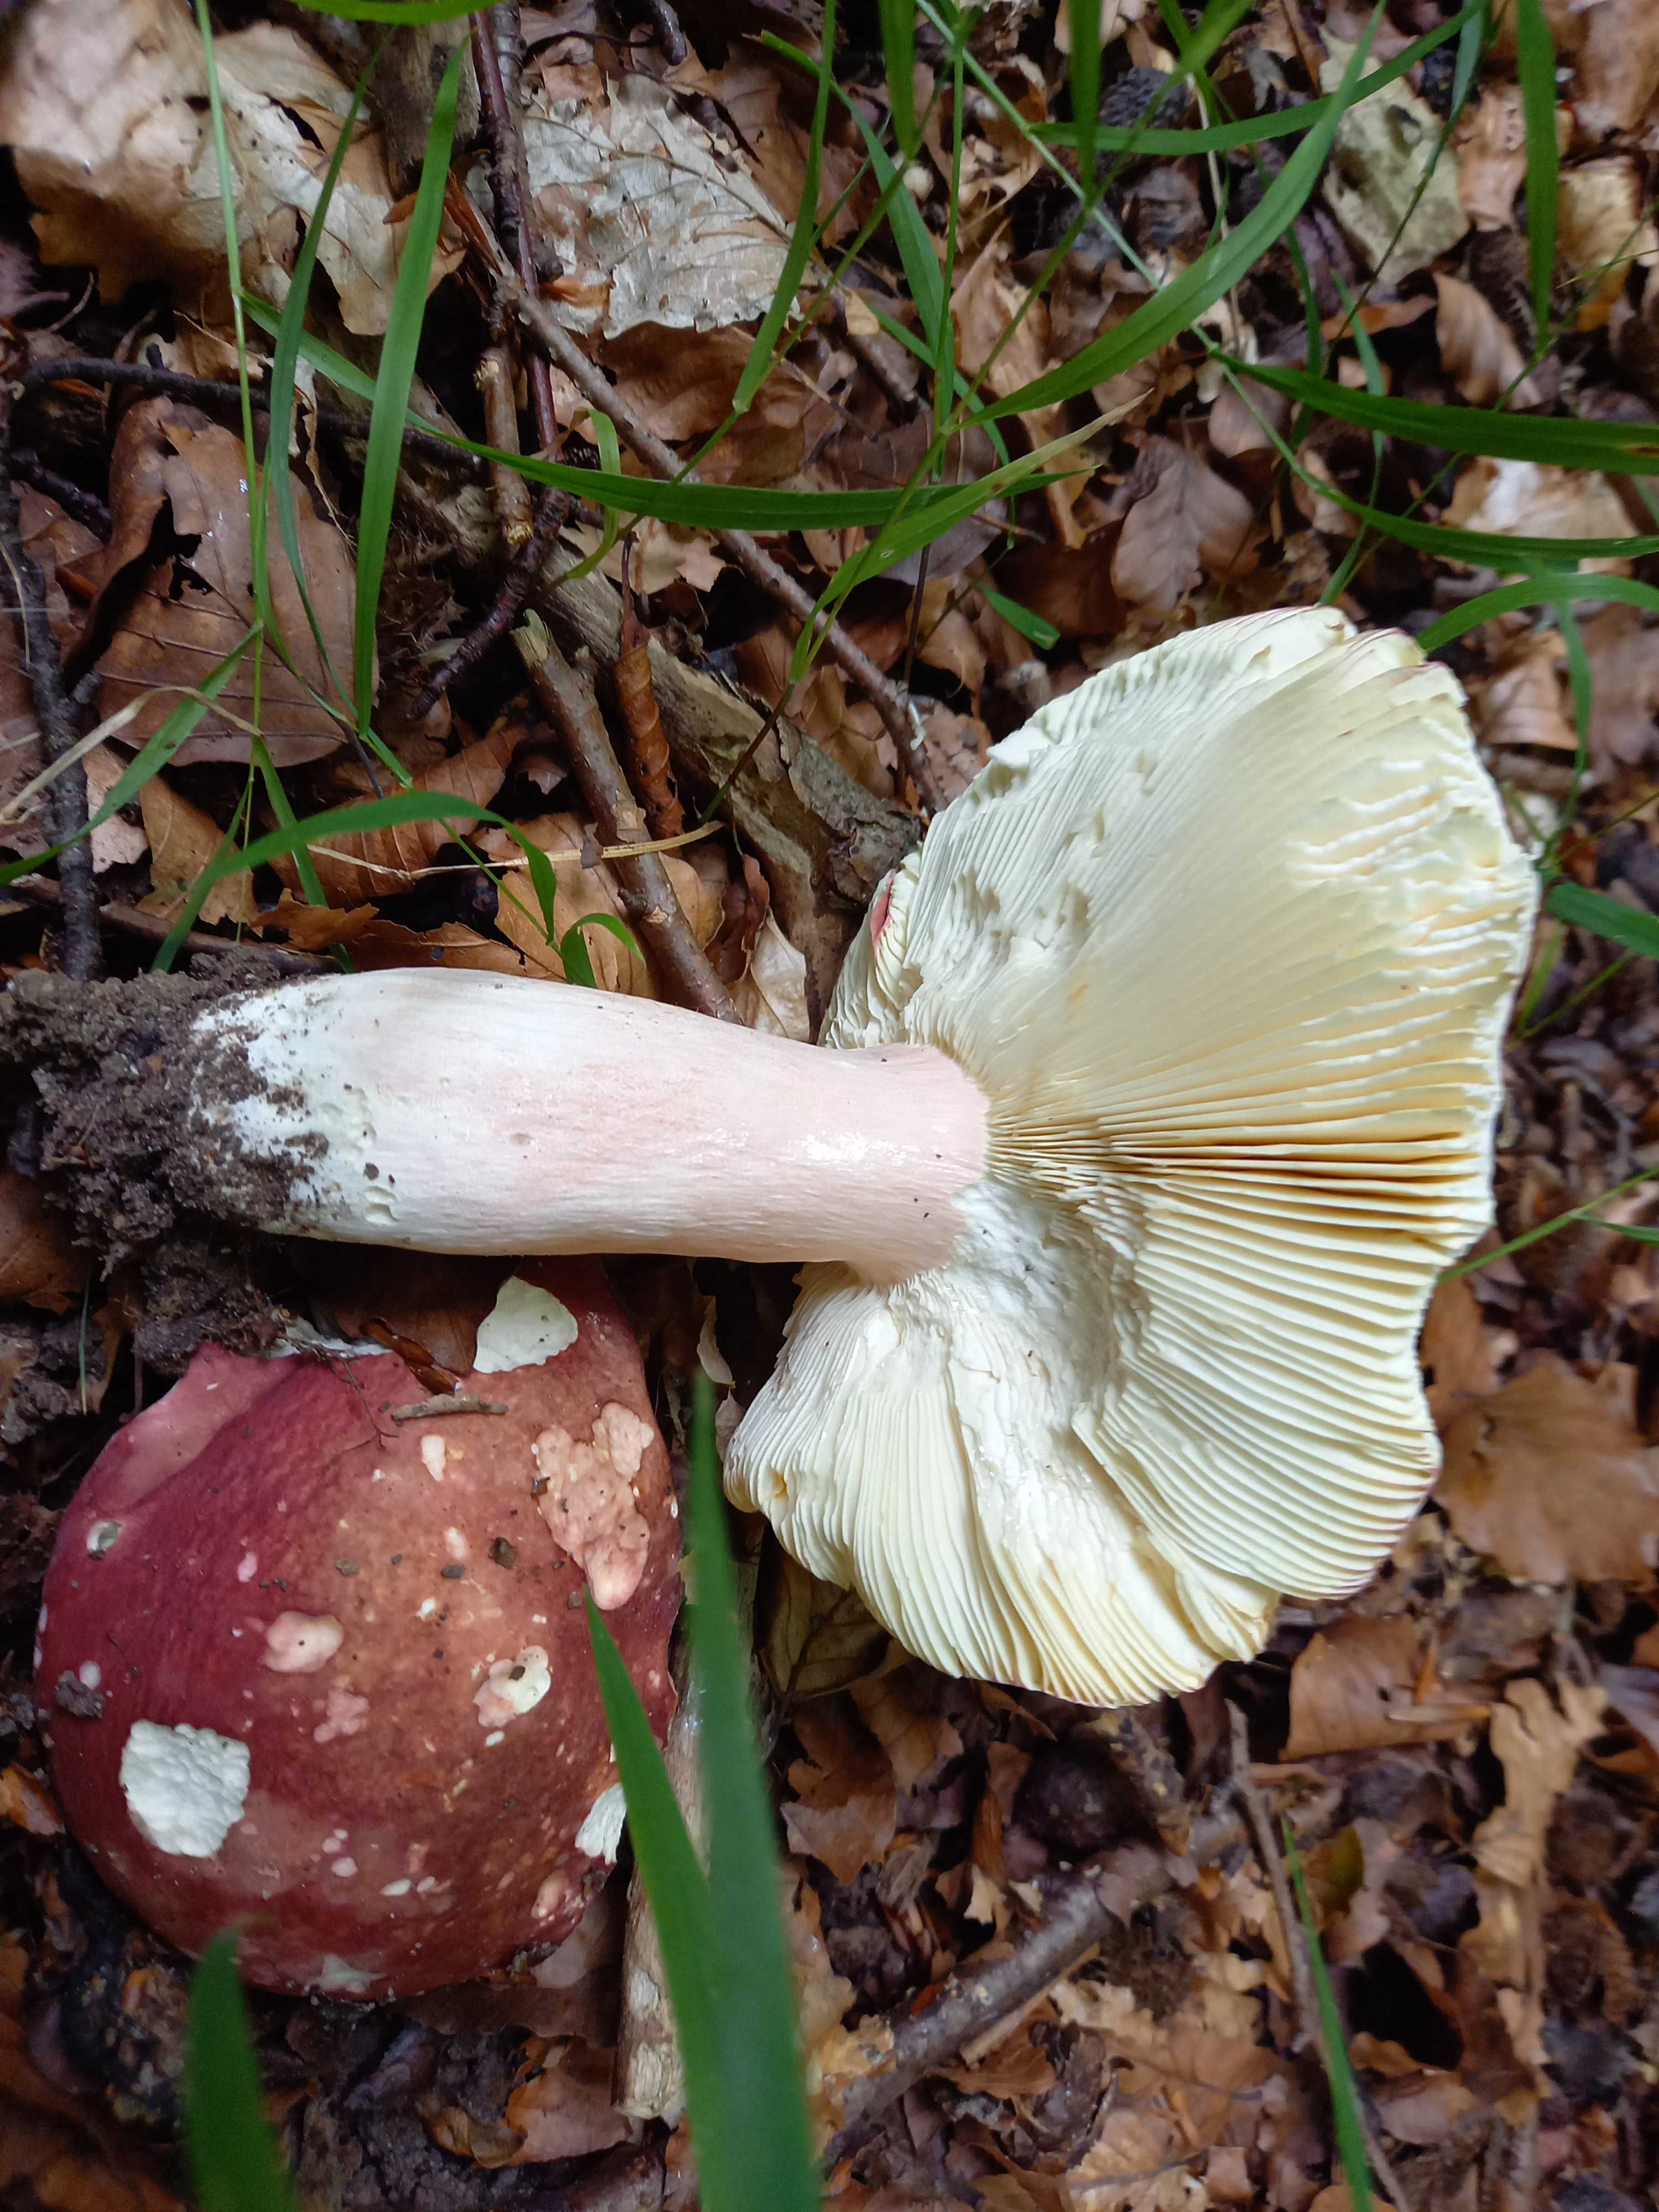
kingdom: Fungi
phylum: Basidiomycota
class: Agaricomycetes
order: Russulales
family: Russulaceae
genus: Russula
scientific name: Russula olivacea
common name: stor skørhat
